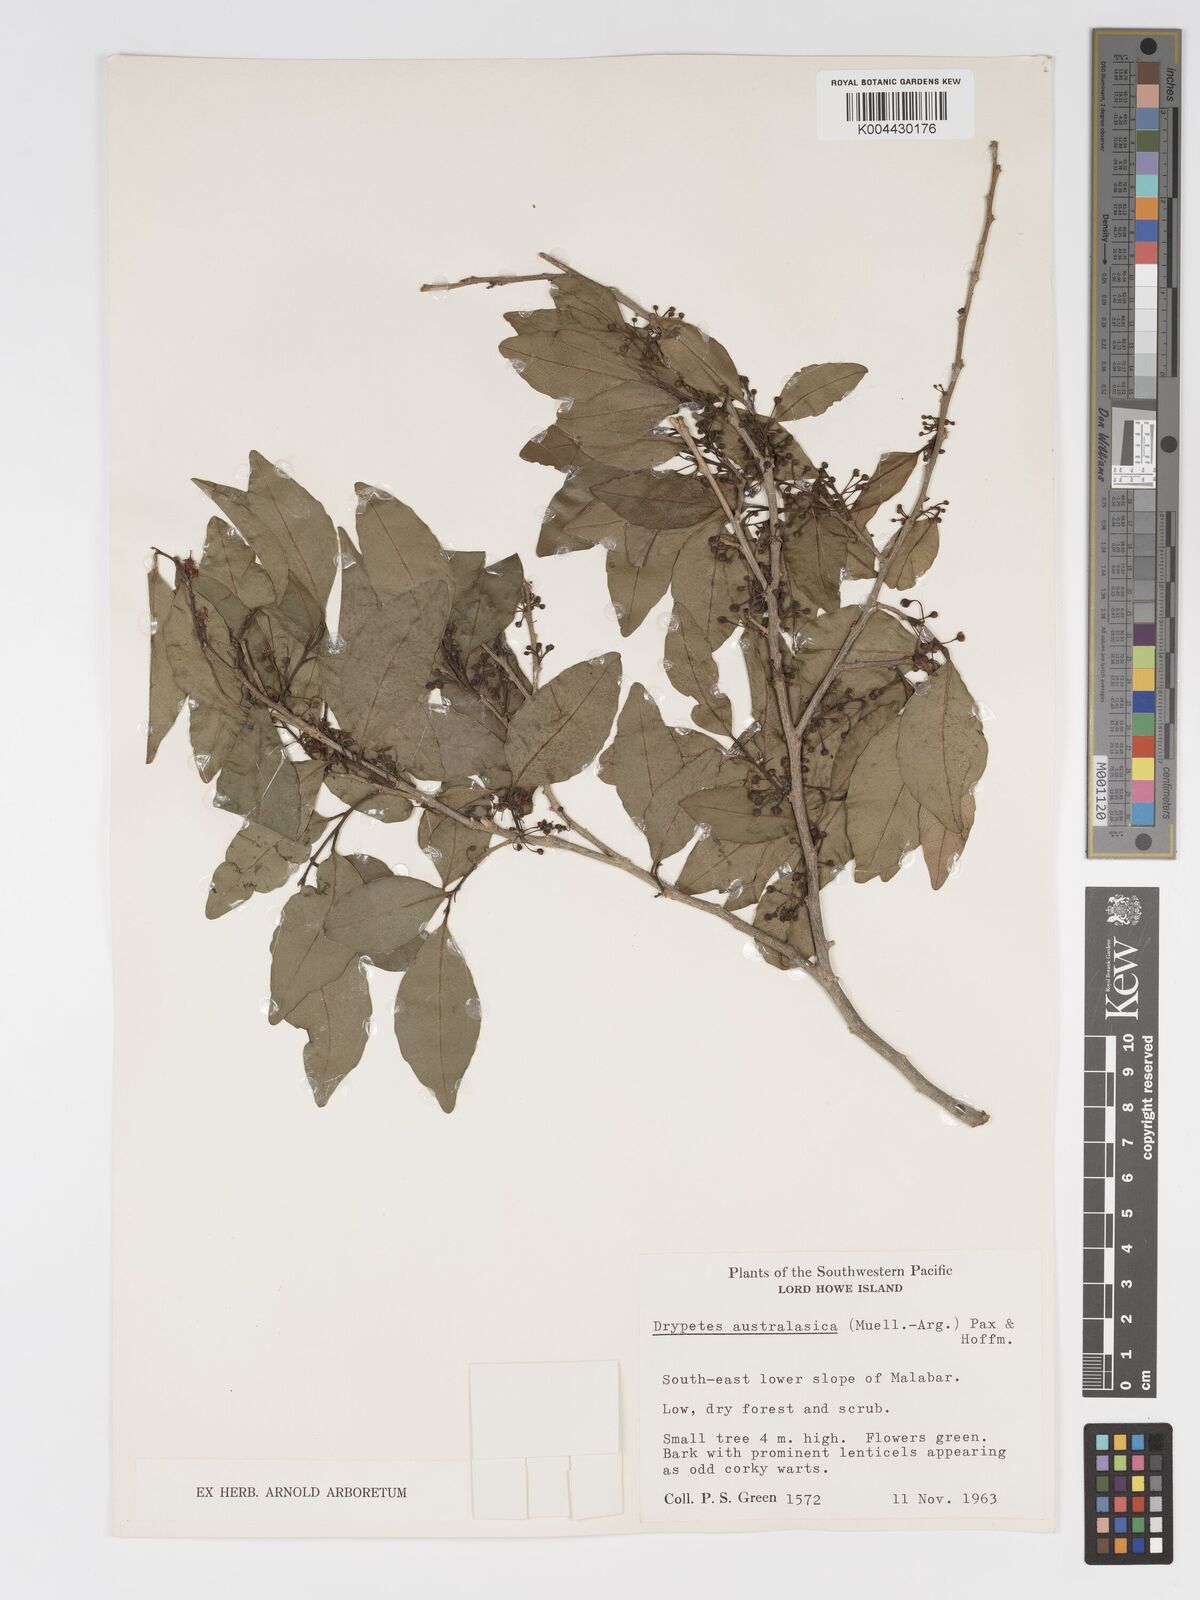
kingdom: Plantae
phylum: Tracheophyta
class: Magnoliopsida
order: Malpighiales
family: Putranjivaceae
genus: Drypetes
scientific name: Drypetes deplanchei
